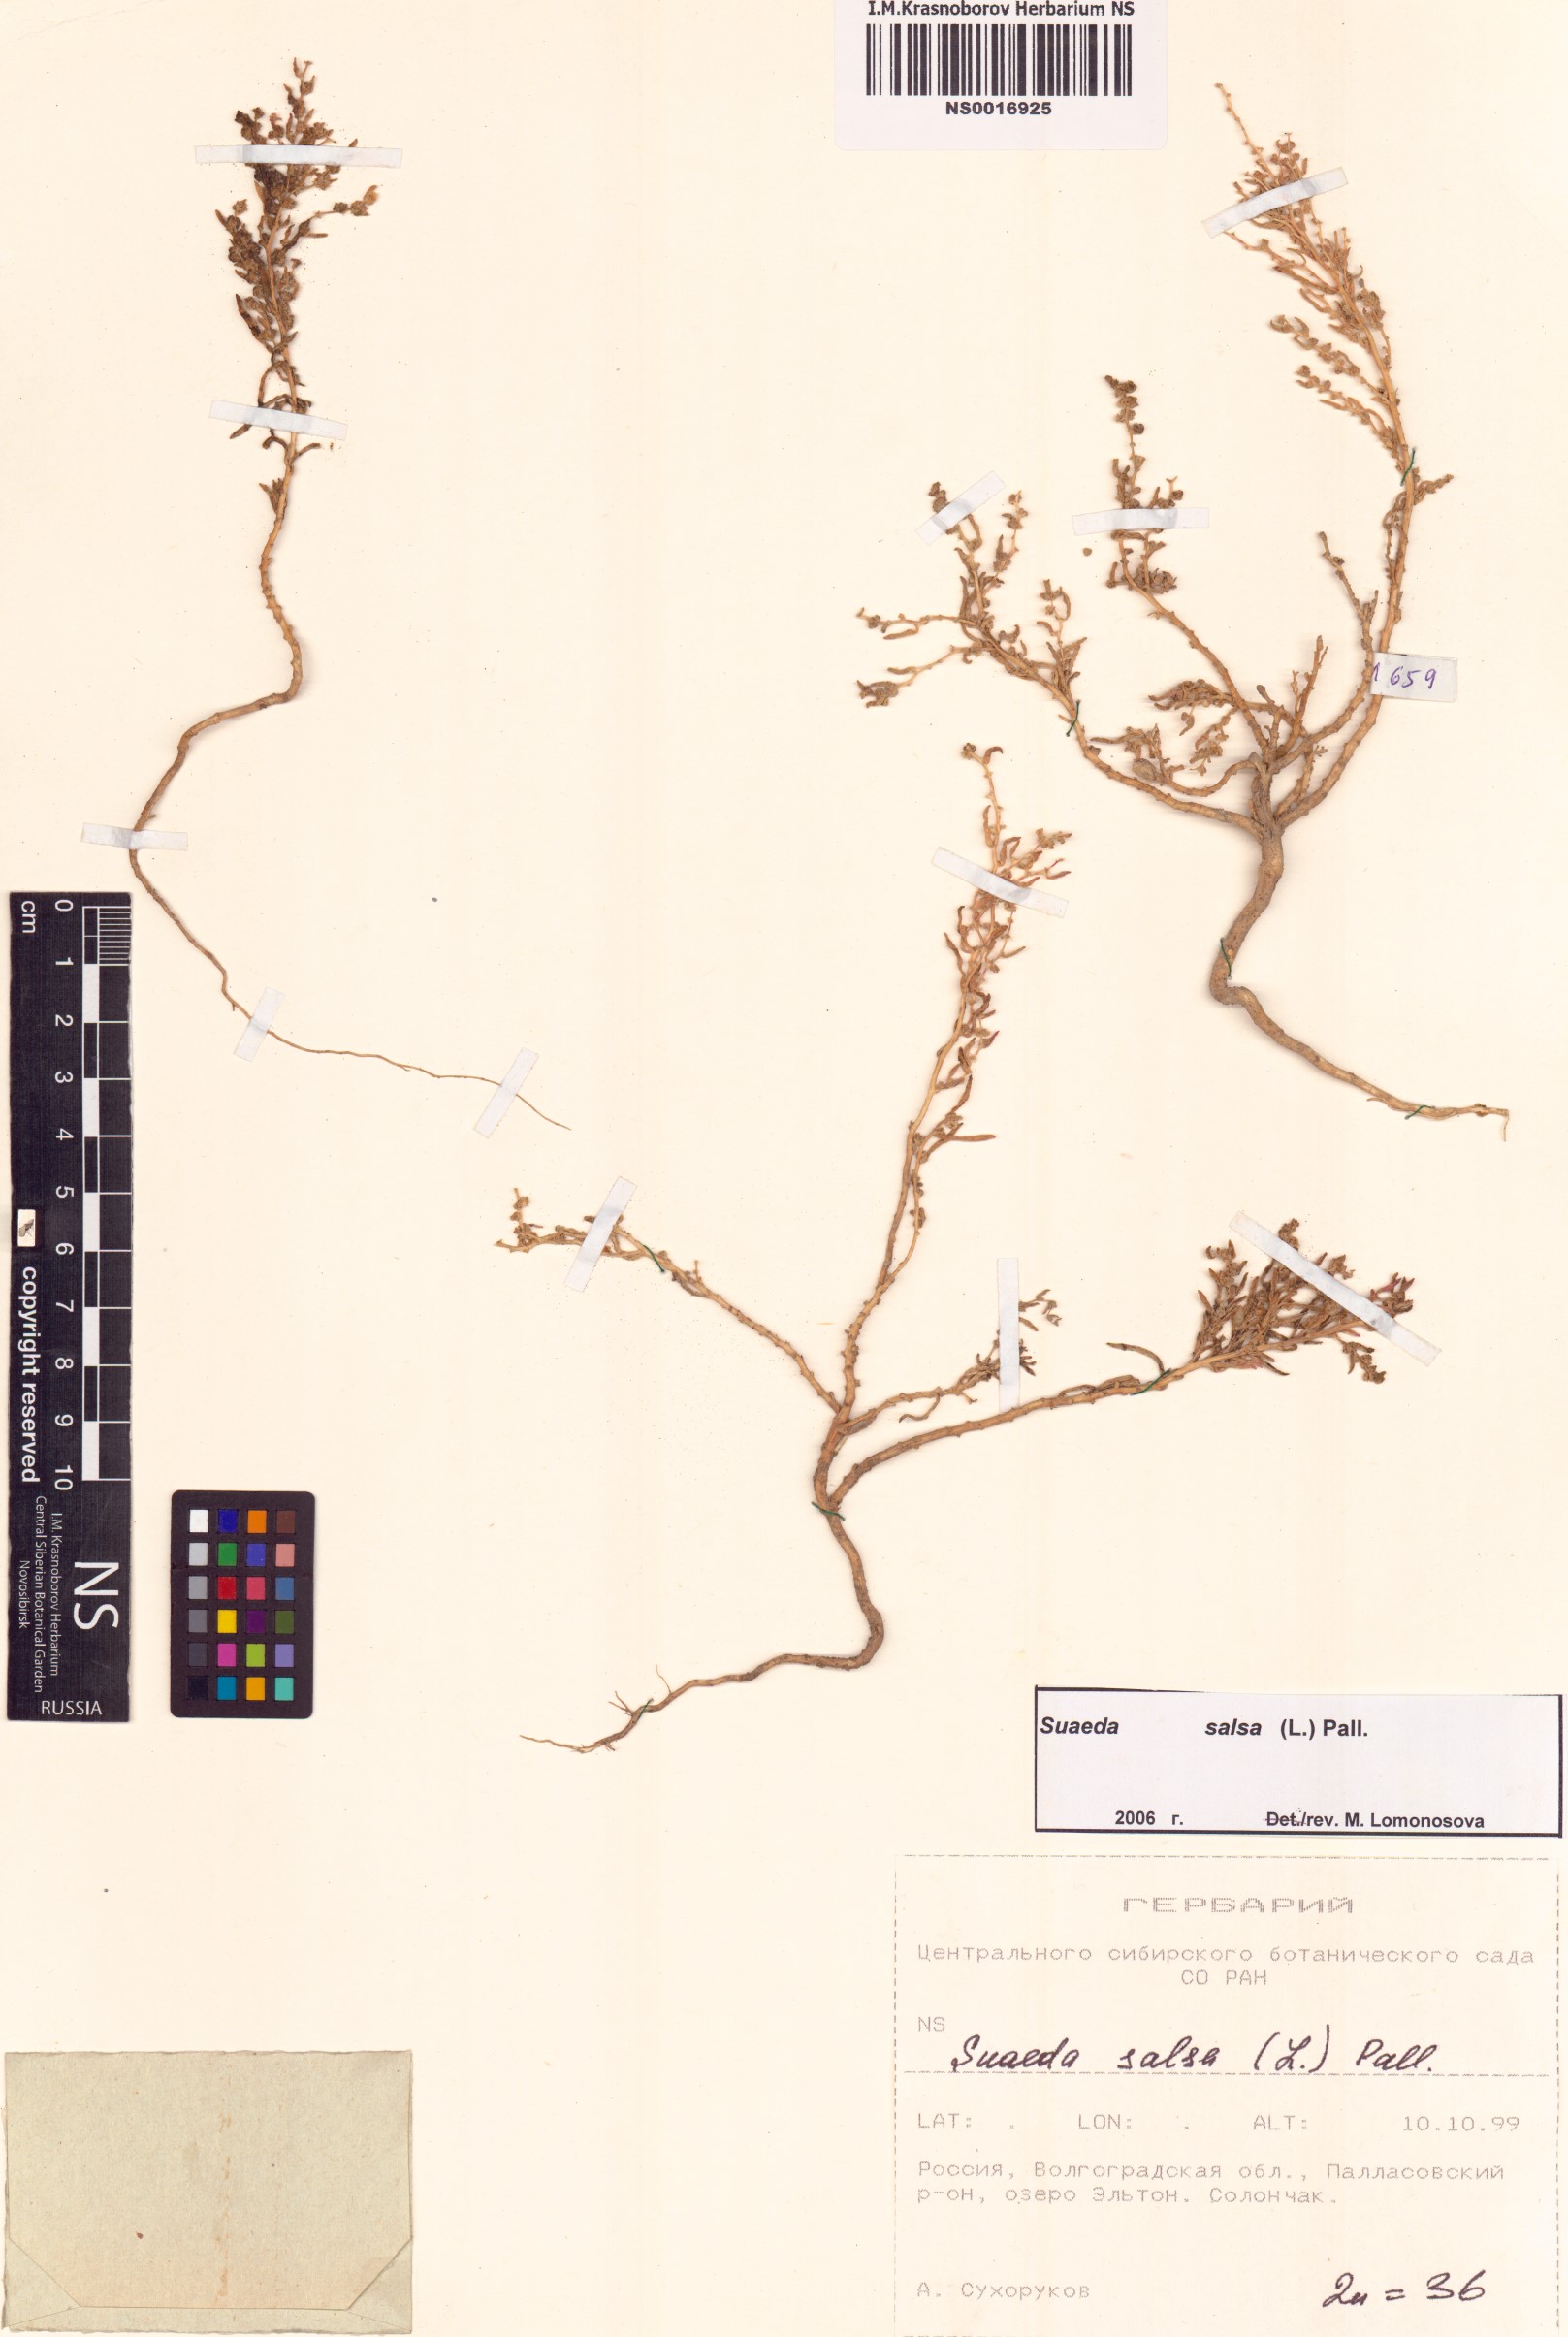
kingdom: Plantae
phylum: Tracheophyta
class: Magnoliopsida
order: Caryophyllales
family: Amaranthaceae
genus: Suaeda
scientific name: Suaeda salsa
